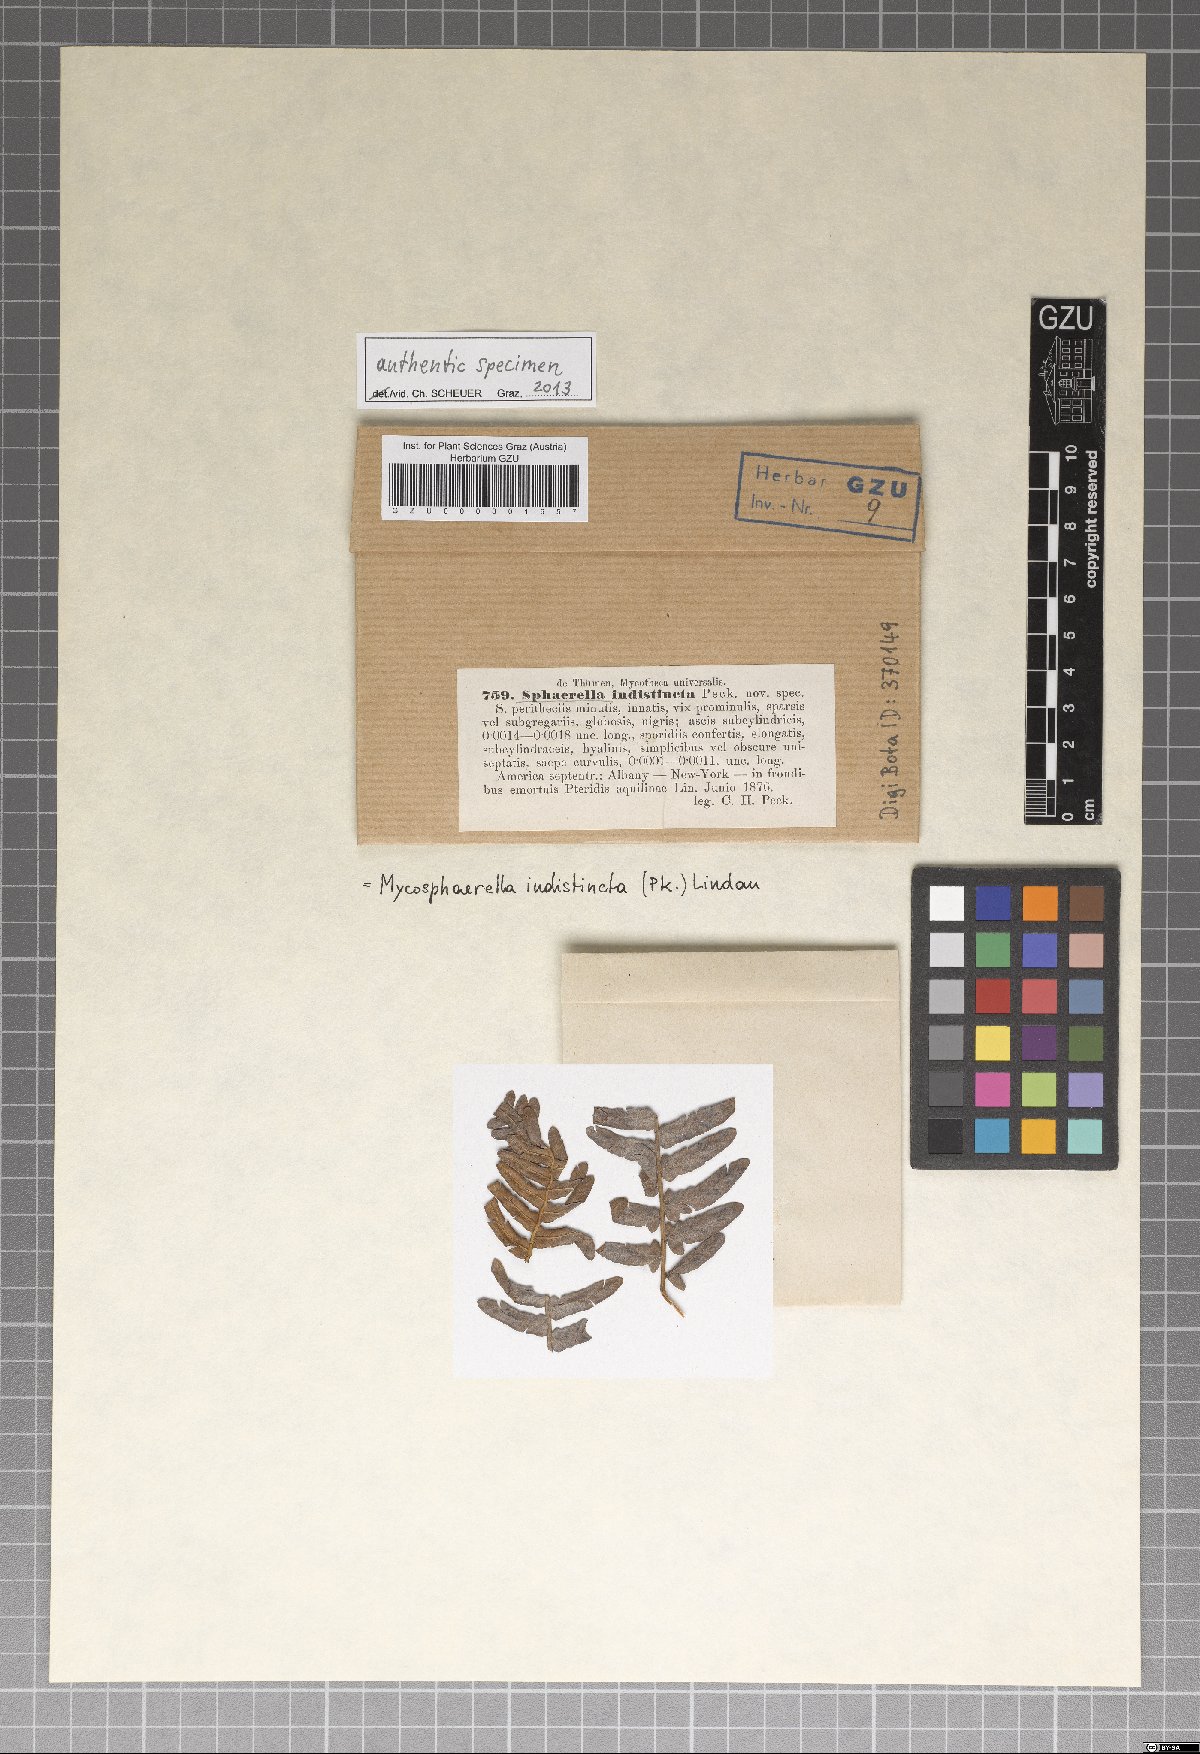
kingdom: Fungi
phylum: Ascomycota
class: Dothideomycetes
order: Mycosphaerellales
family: Mycosphaerellaceae
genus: Sphaerella
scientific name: Sphaerella
